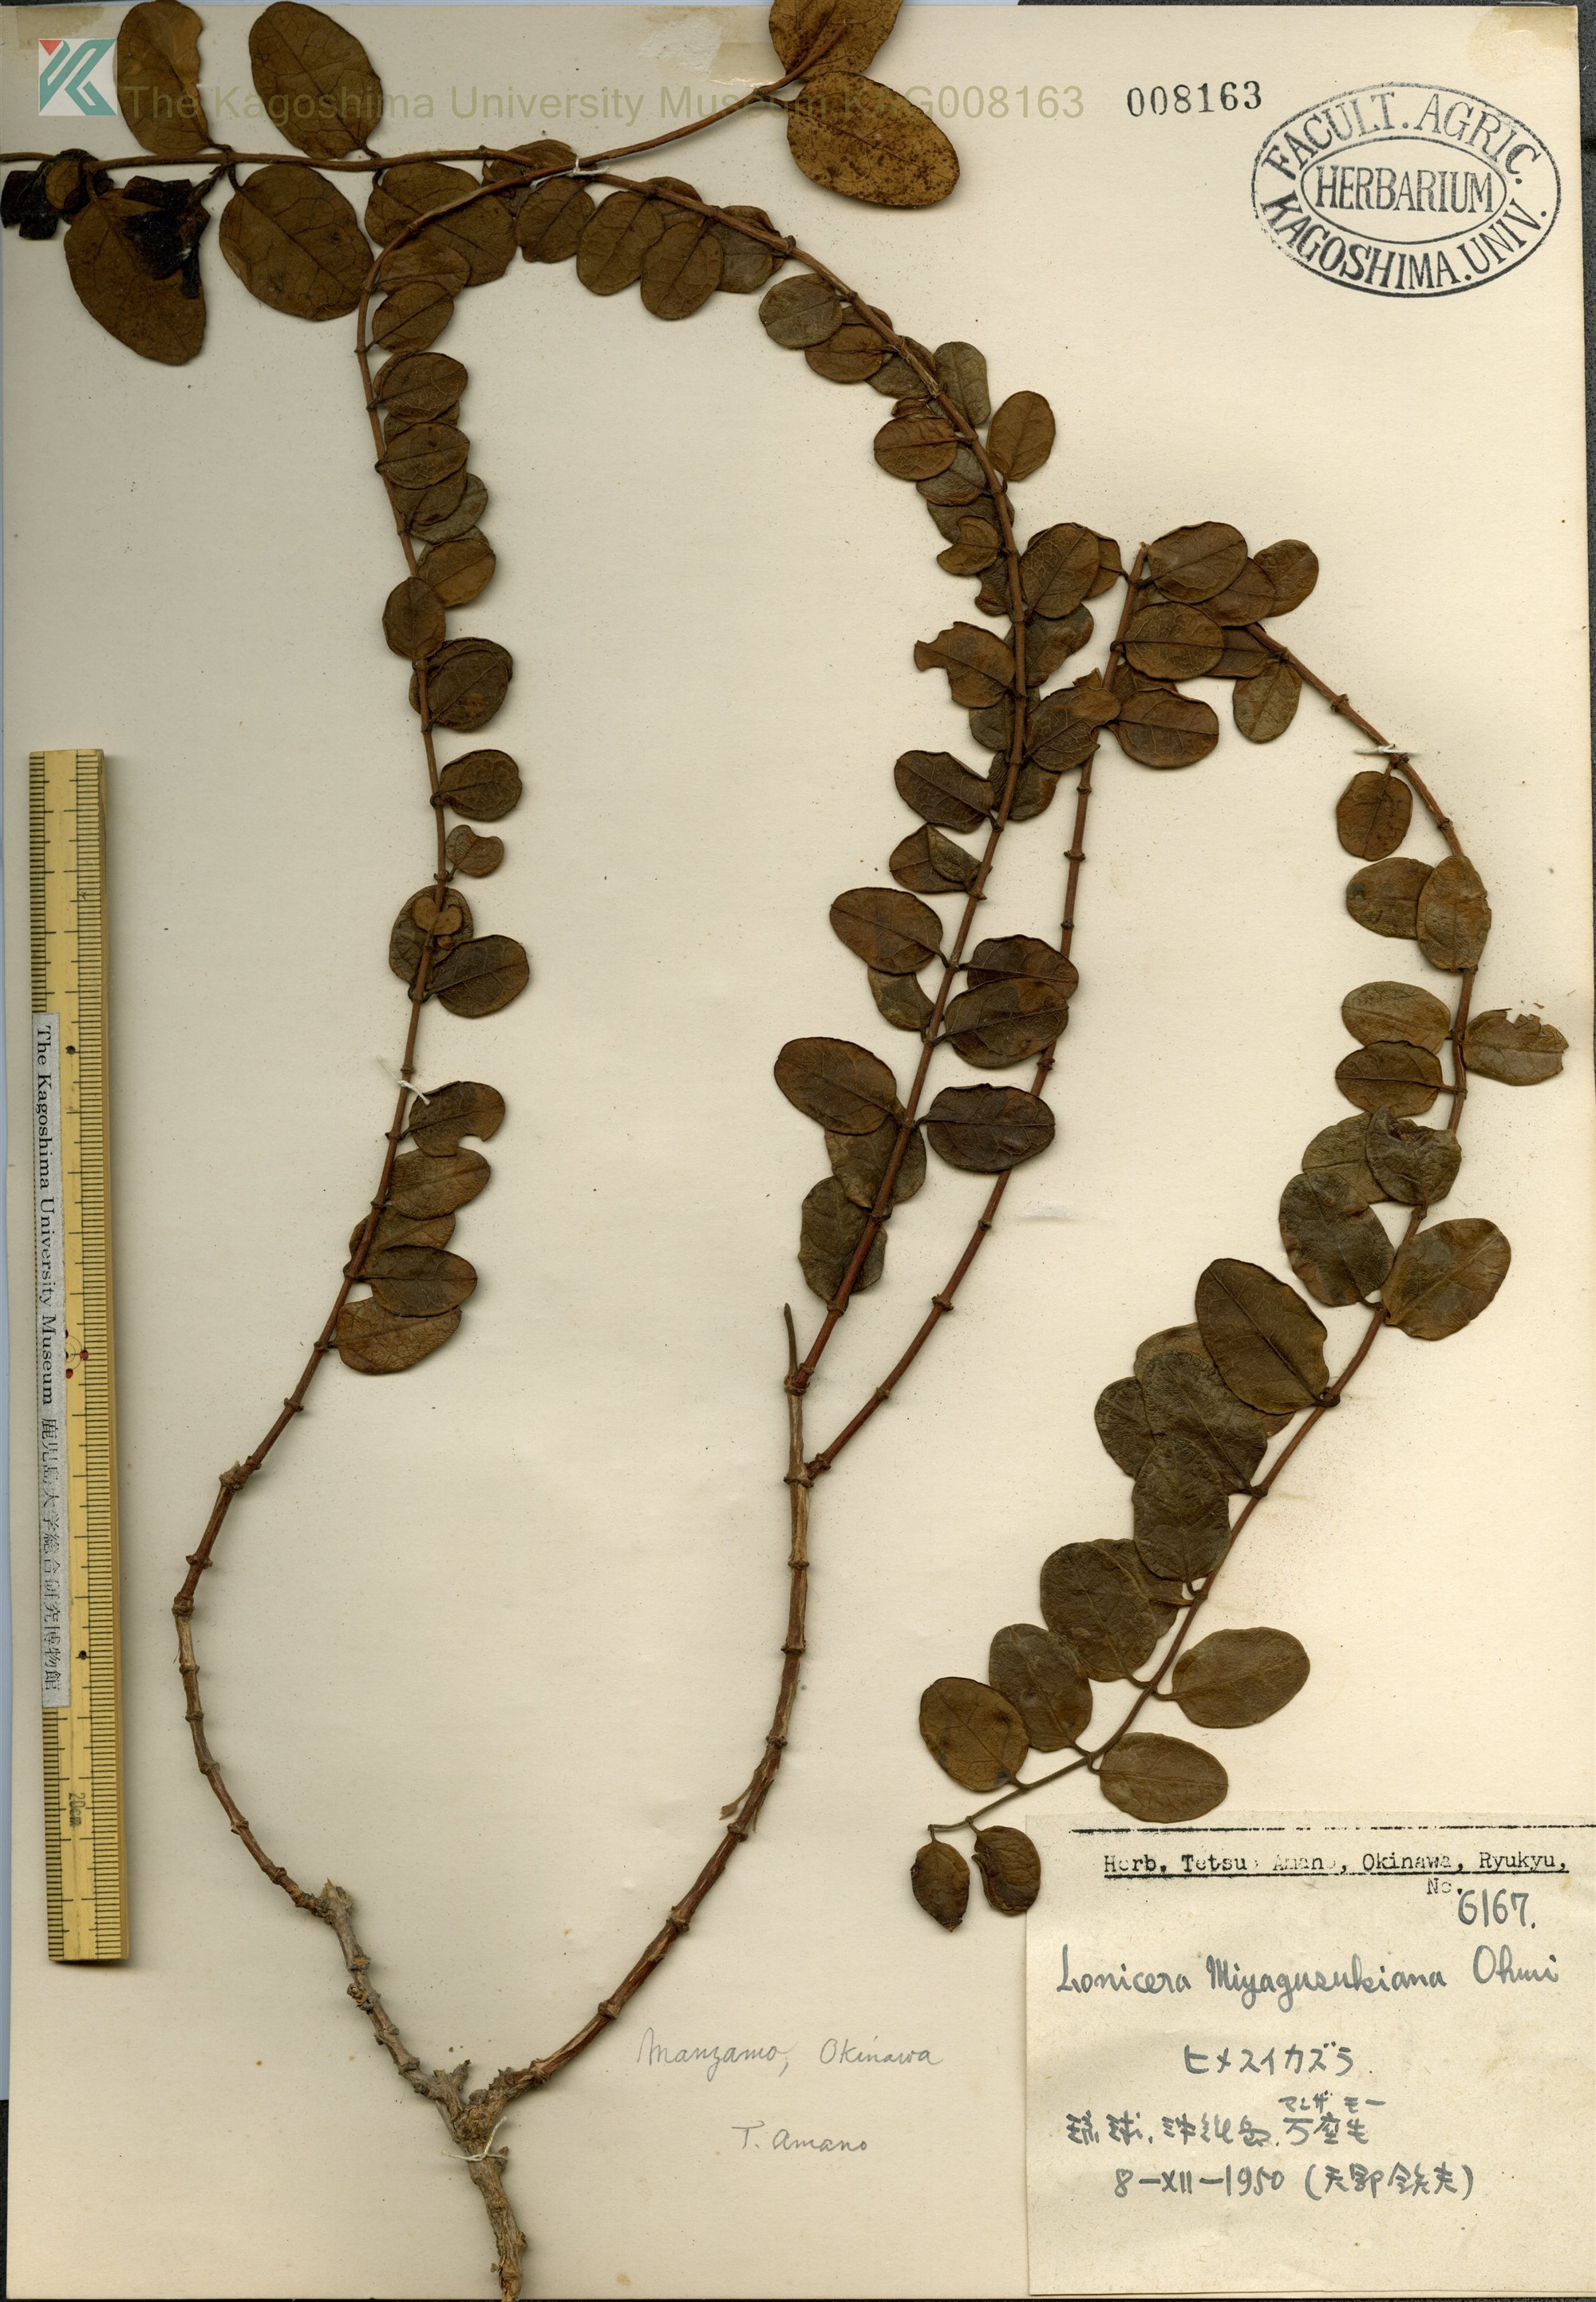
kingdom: Plantae
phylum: Tracheophyta
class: Magnoliopsida
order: Dipsacales
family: Caprifoliaceae
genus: Lonicera
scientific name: Lonicera japonica
